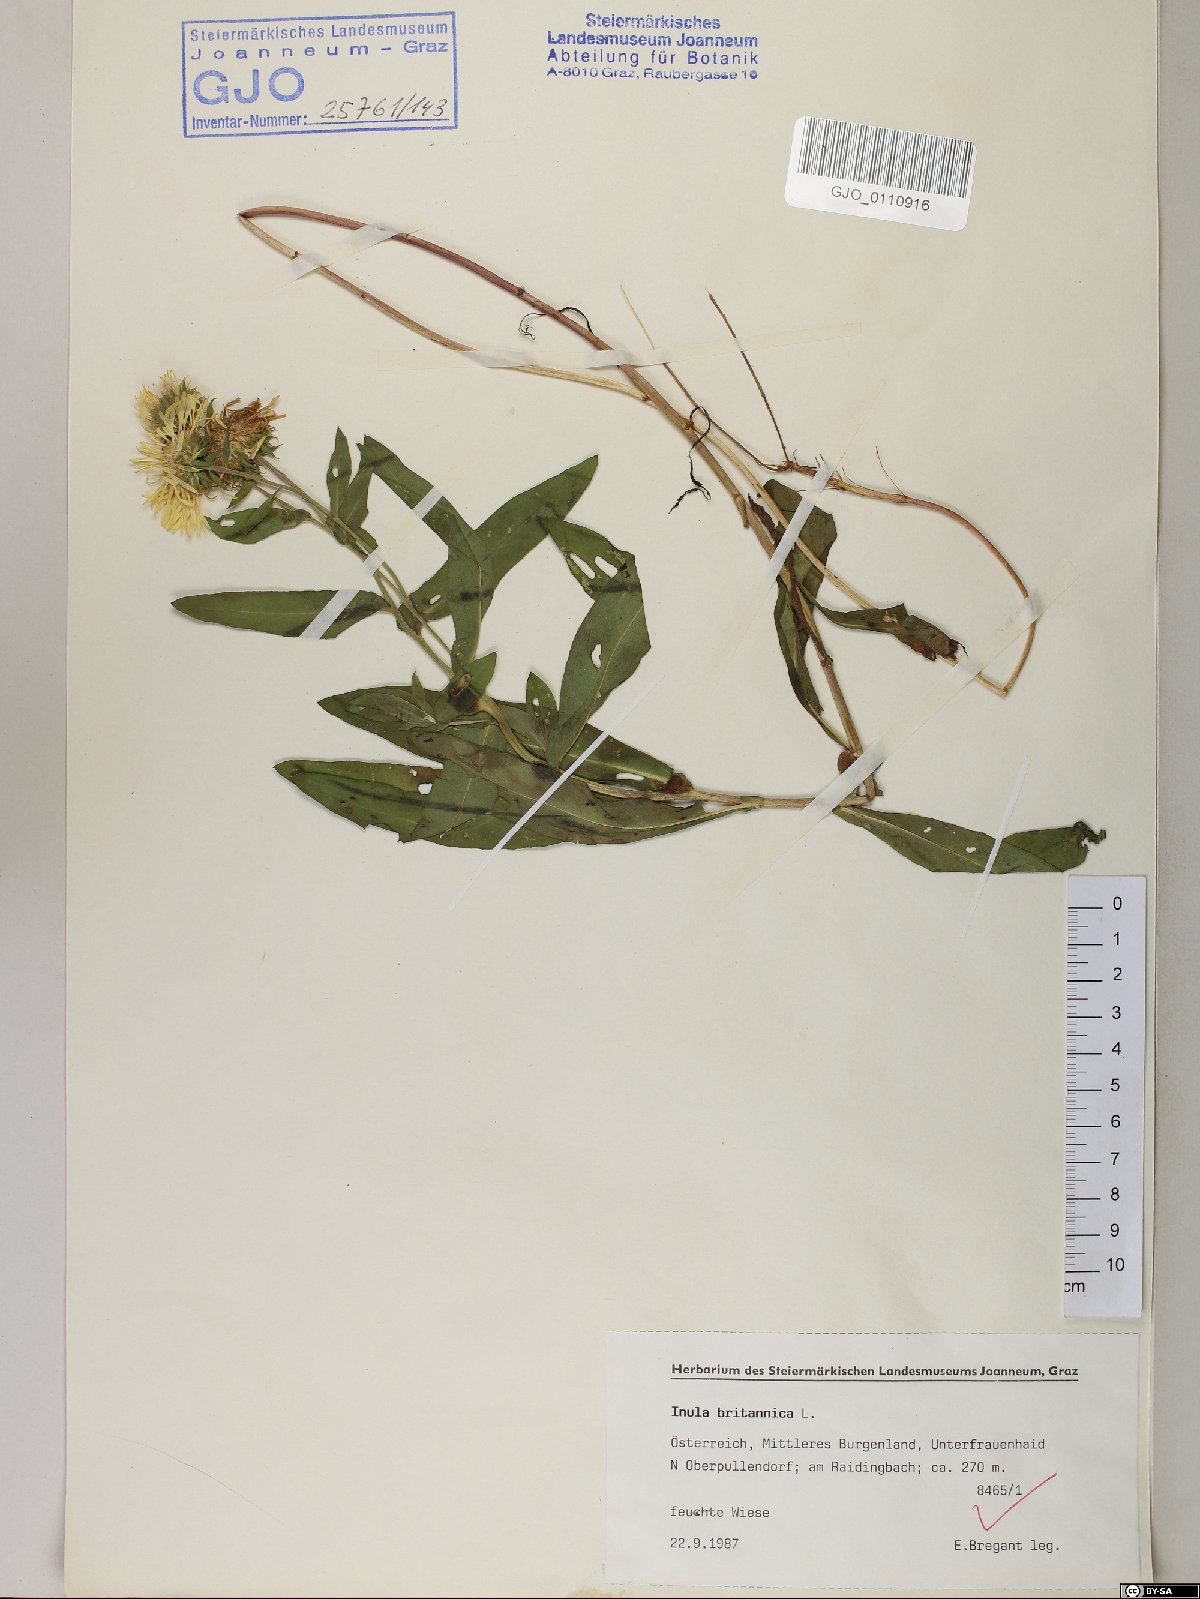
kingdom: Plantae
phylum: Tracheophyta
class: Magnoliopsida
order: Asterales
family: Asteraceae
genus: Pentanema
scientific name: Pentanema britannicum
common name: British elecampane
